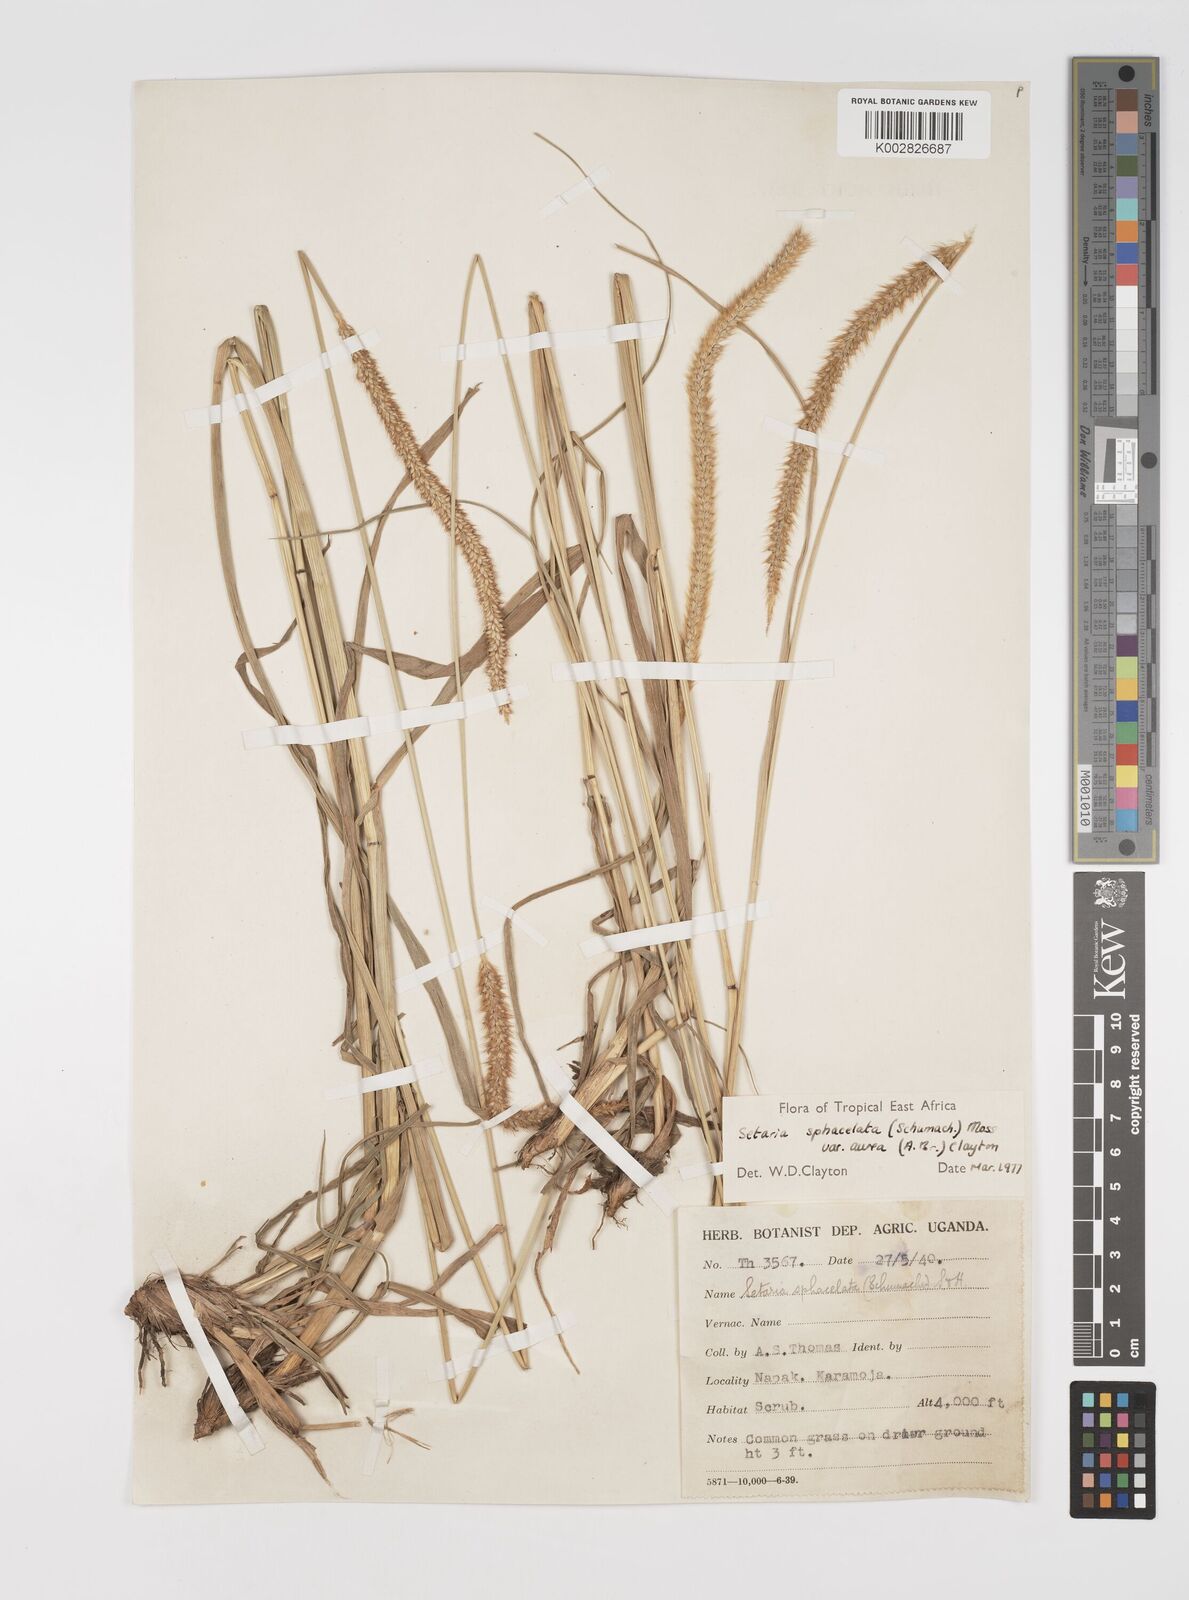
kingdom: Plantae
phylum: Tracheophyta
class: Liliopsida
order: Poales
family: Poaceae
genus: Setaria
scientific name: Setaria sphacelata
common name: African bristlegrass
